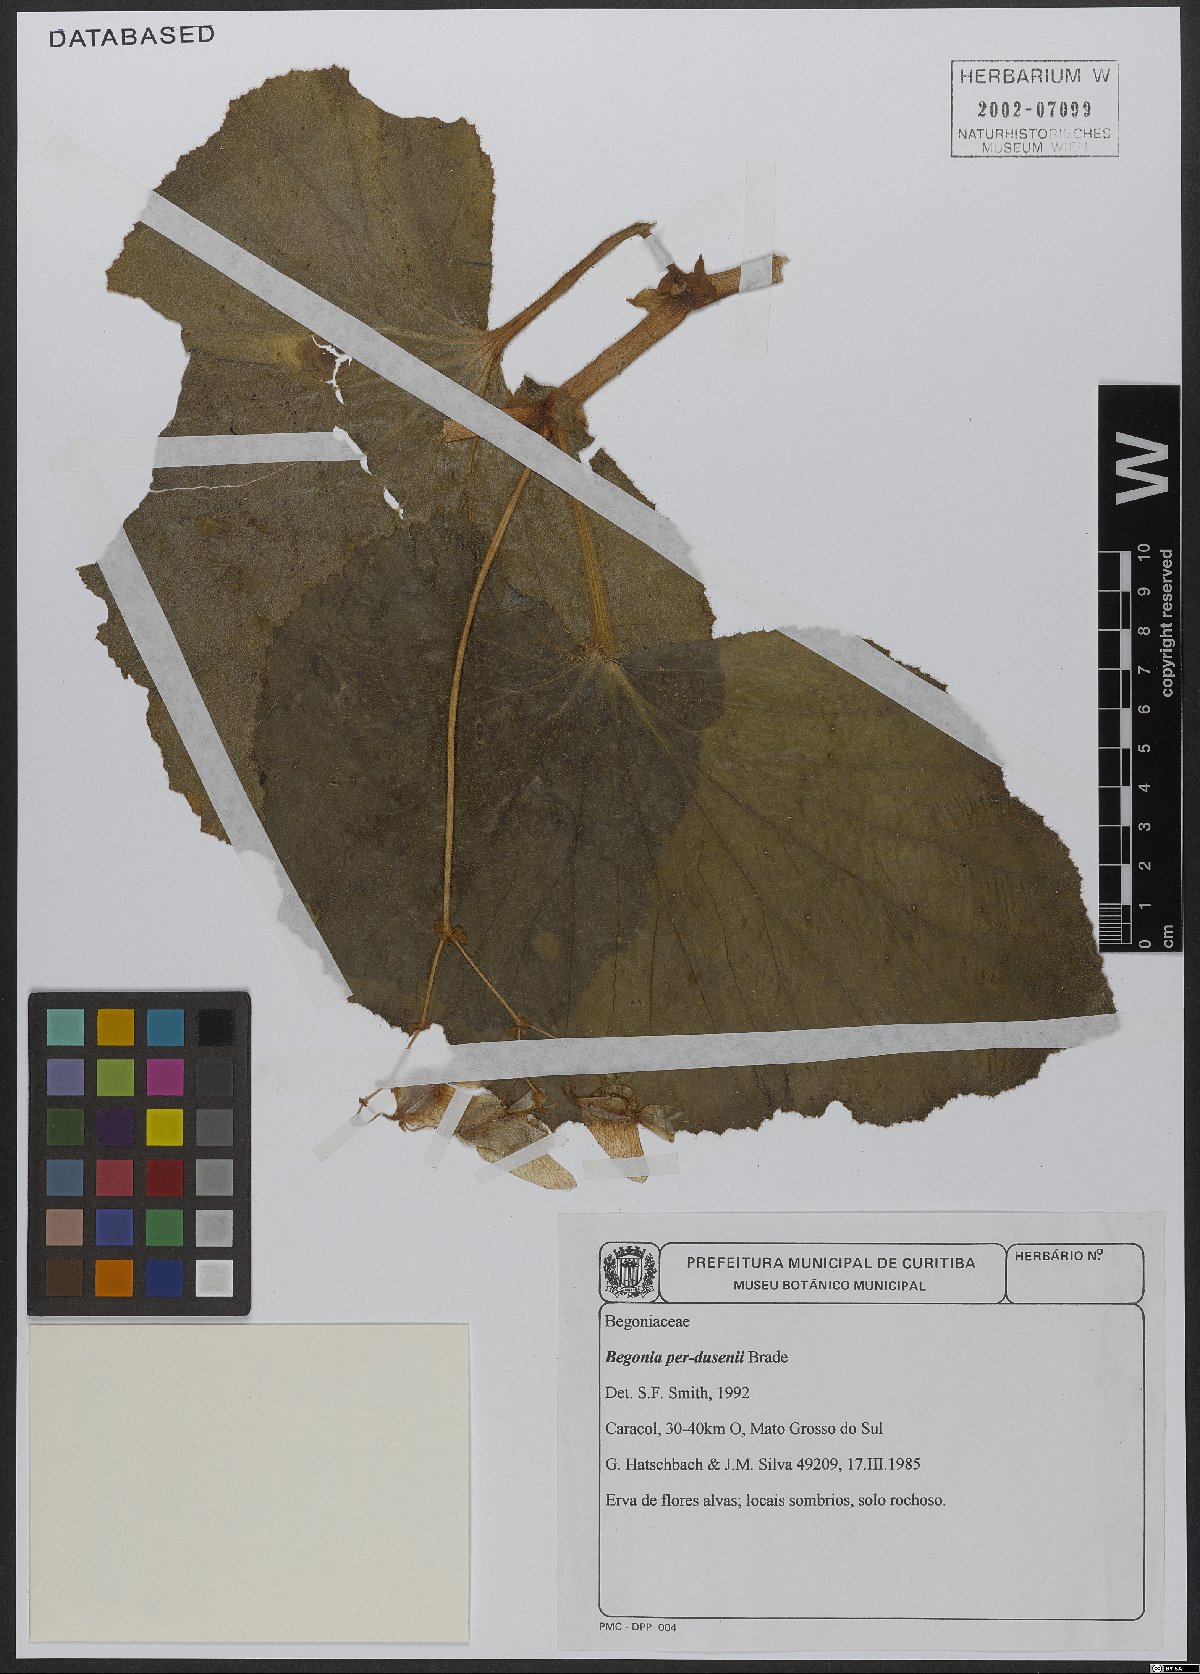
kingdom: Plantae
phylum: Tracheophyta
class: Magnoliopsida
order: Cucurbitales
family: Begoniaceae
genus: Begonia
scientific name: Begonia perdusenii
